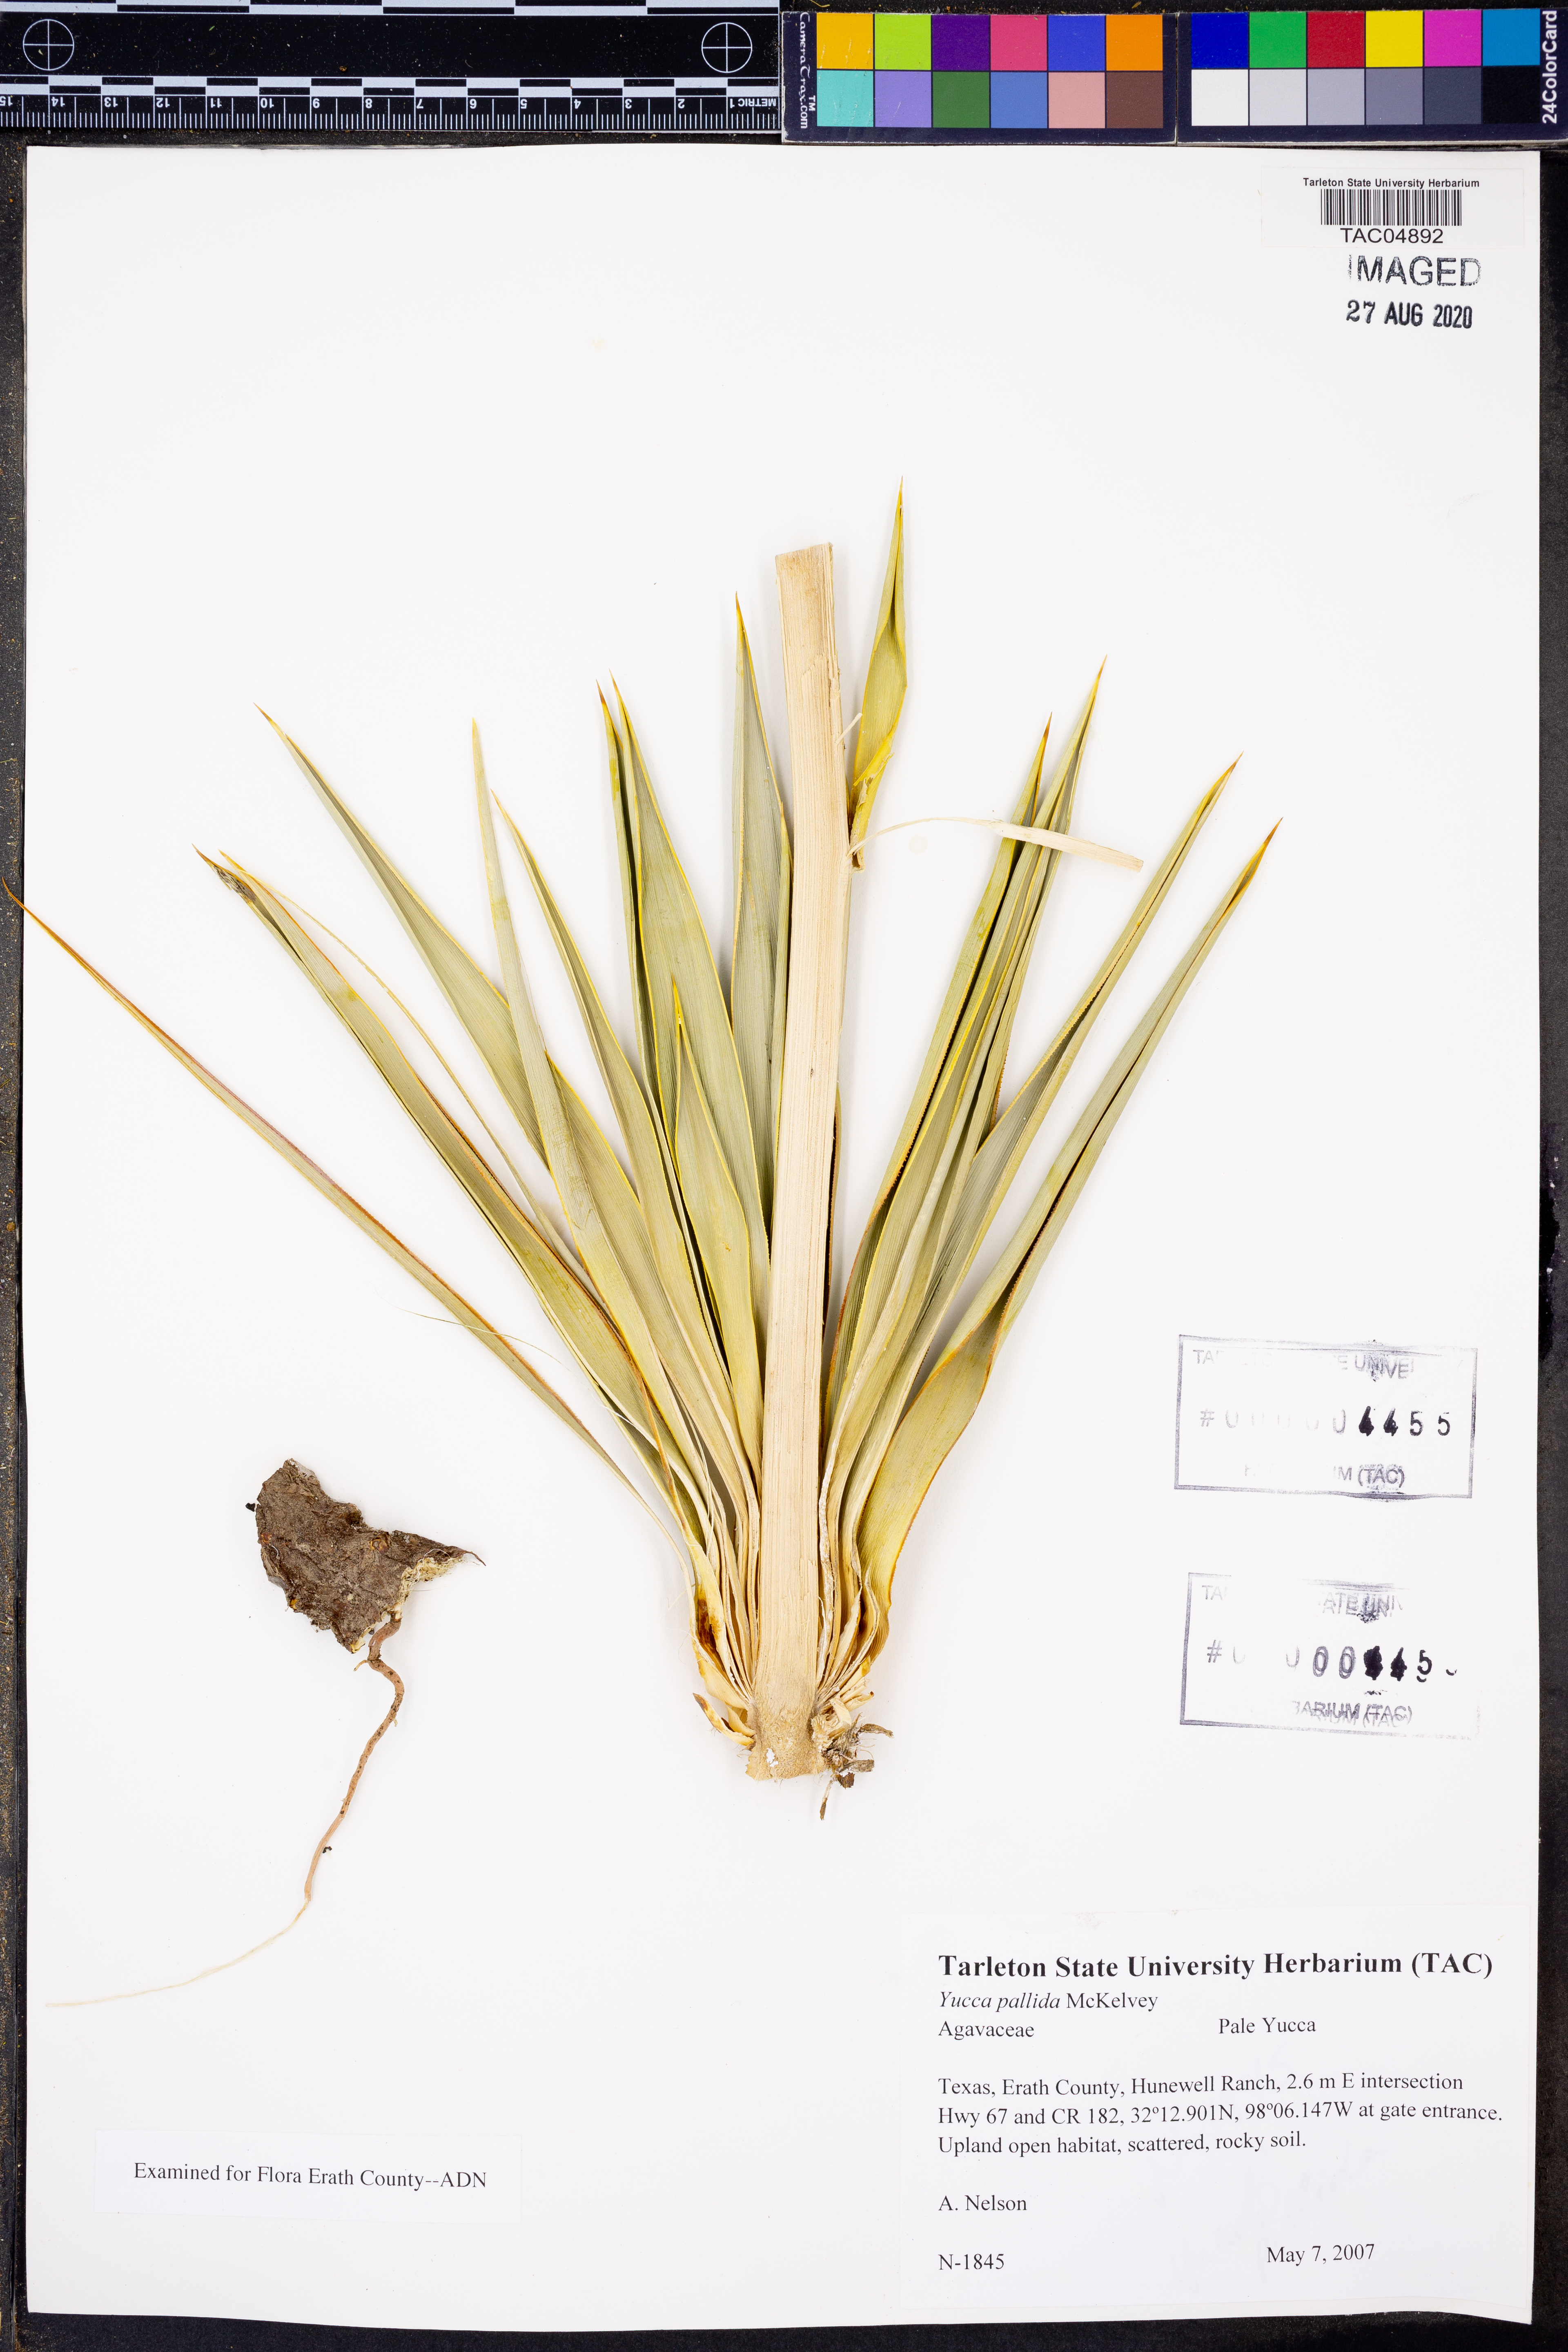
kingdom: Plantae
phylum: Tracheophyta
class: Liliopsida
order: Asparagales
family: Asparagaceae
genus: Yucca
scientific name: Yucca pallida
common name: Pale leaf yucca
